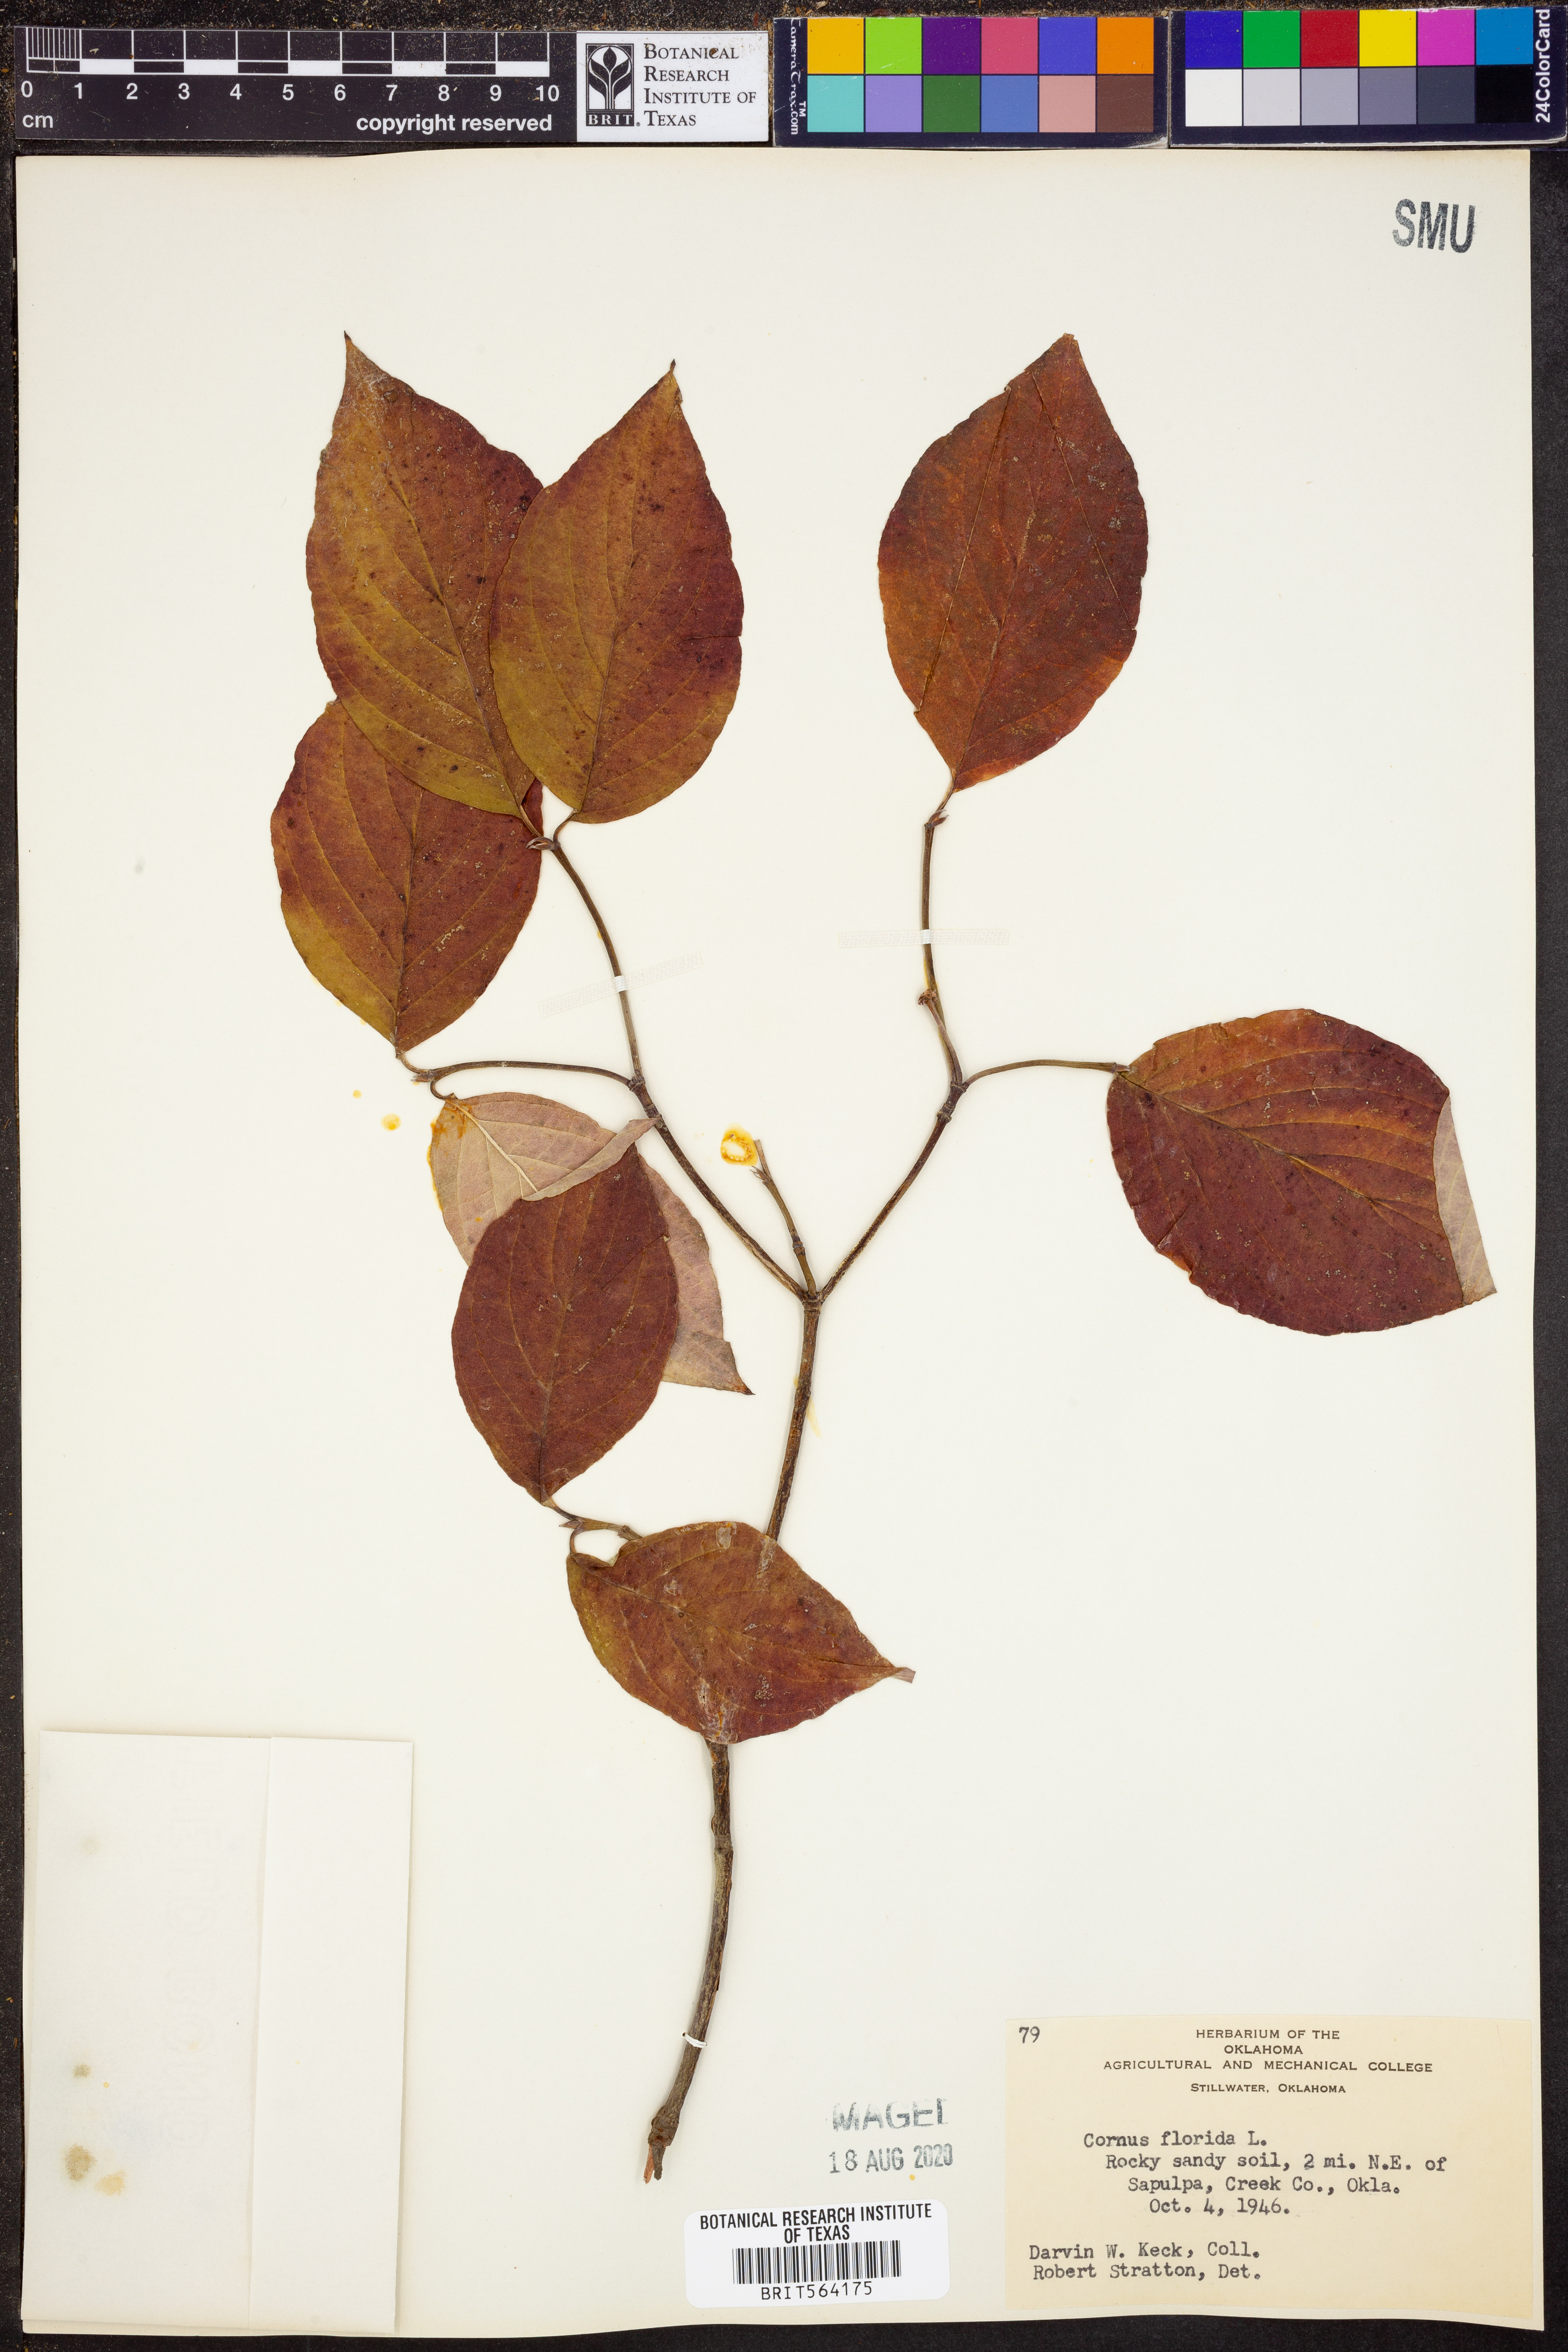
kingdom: Plantae
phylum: Tracheophyta
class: Magnoliopsida
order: Cornales
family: Cornaceae
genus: Cornus
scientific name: Cornus florida
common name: Flowering dogwood
